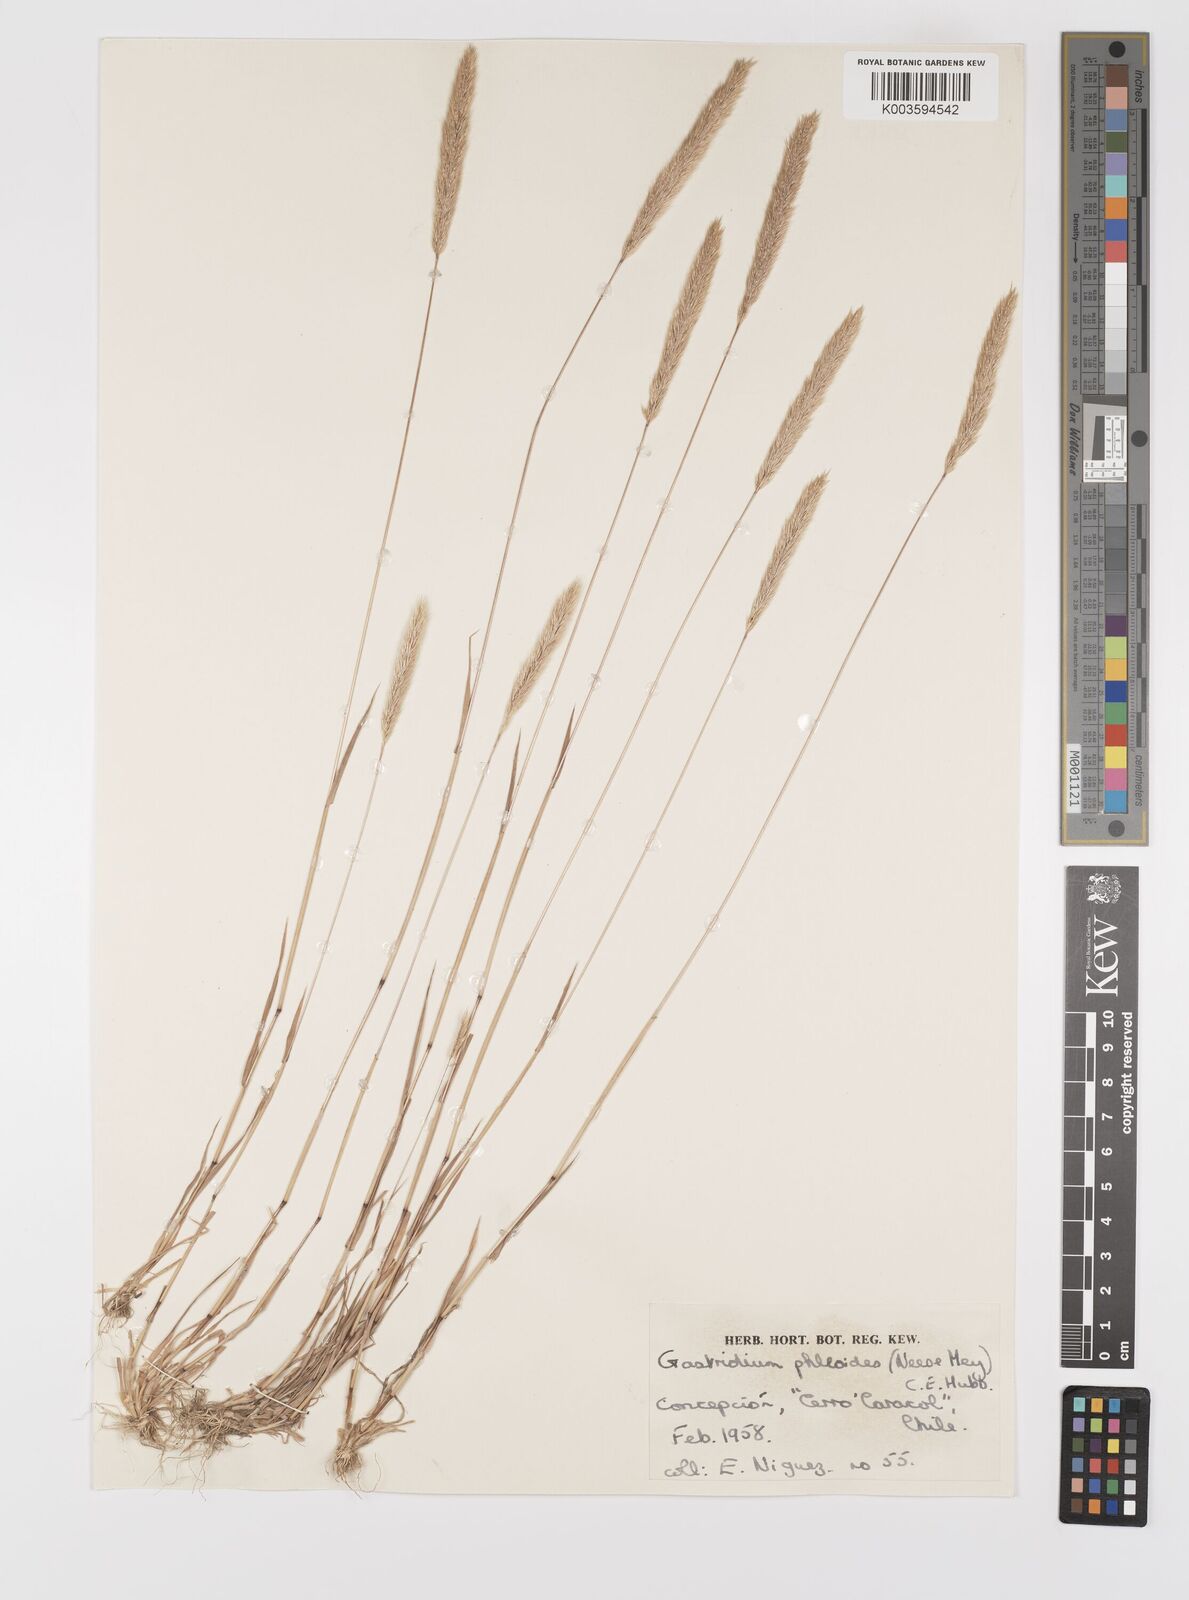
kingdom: Plantae
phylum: Tracheophyta
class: Liliopsida
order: Poales
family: Poaceae
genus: Gastridium
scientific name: Gastridium phleoides
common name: Nit grass
